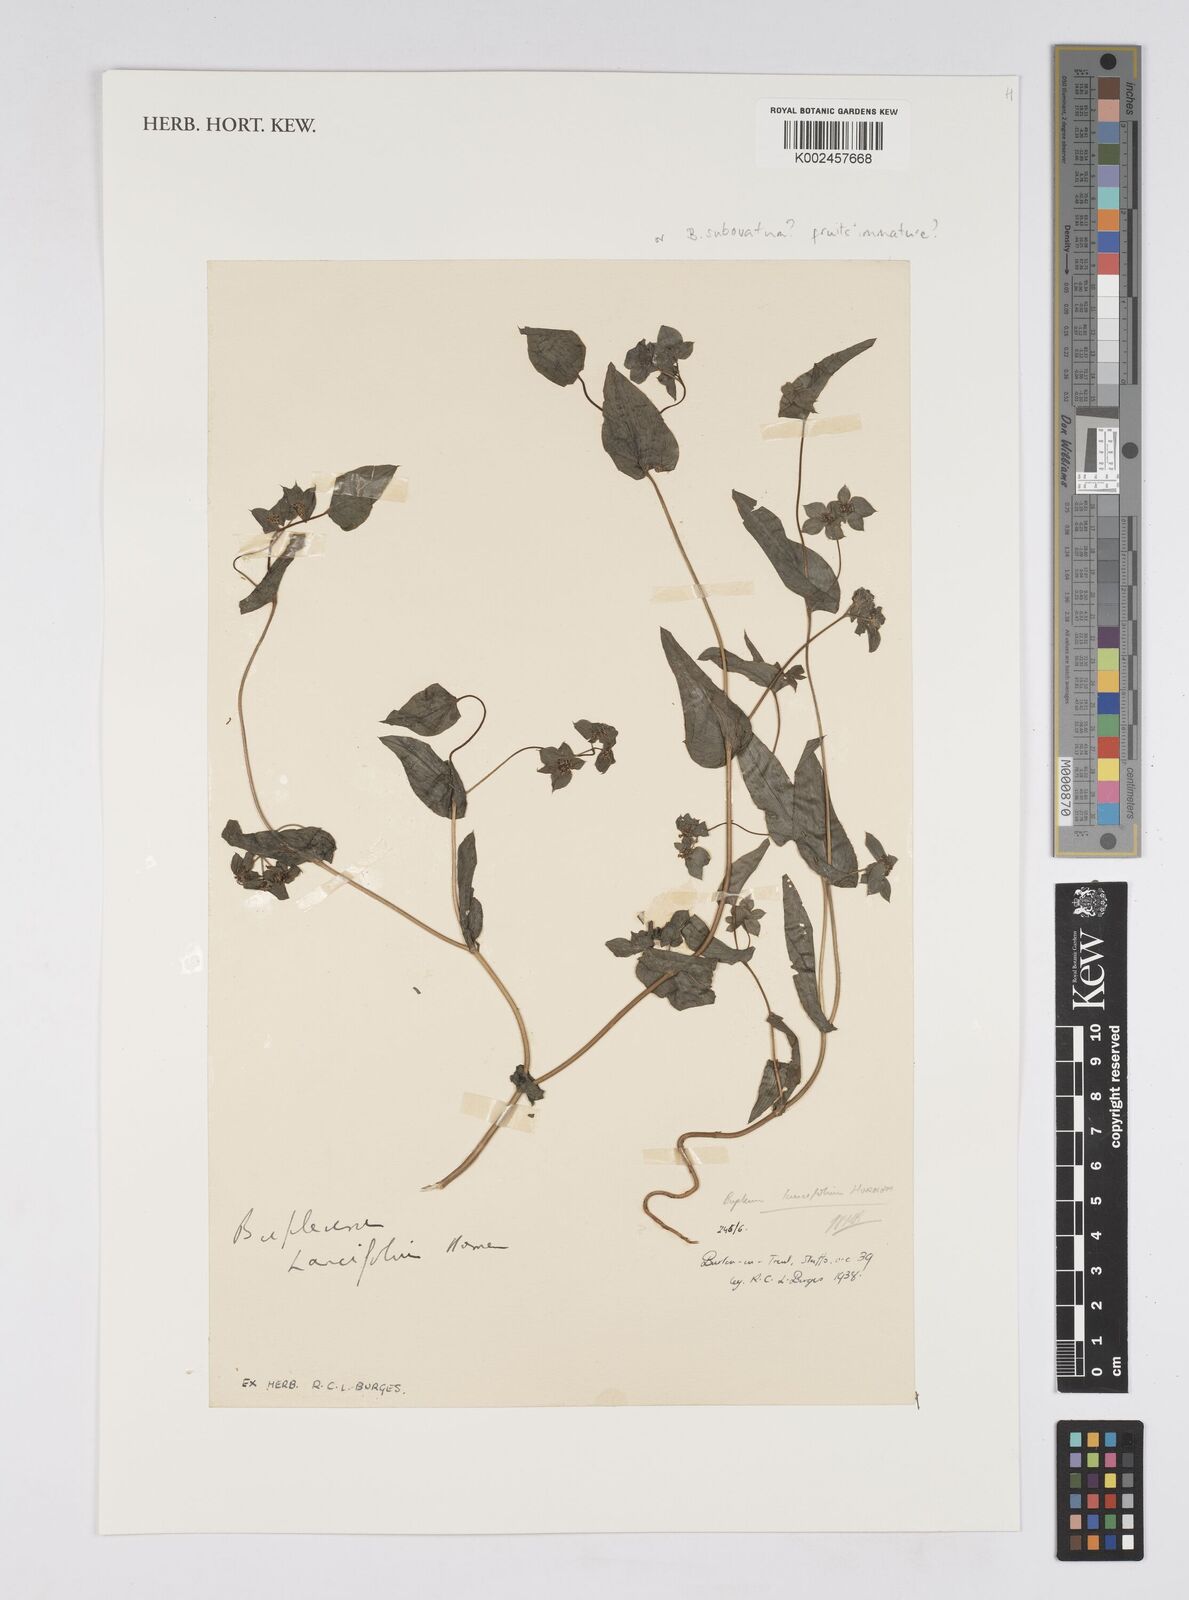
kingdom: Plantae
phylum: Tracheophyta
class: Magnoliopsida
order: Apiales
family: Apiaceae
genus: Bupleurum
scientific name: Bupleurum lancifolium
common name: False thorow-wax
